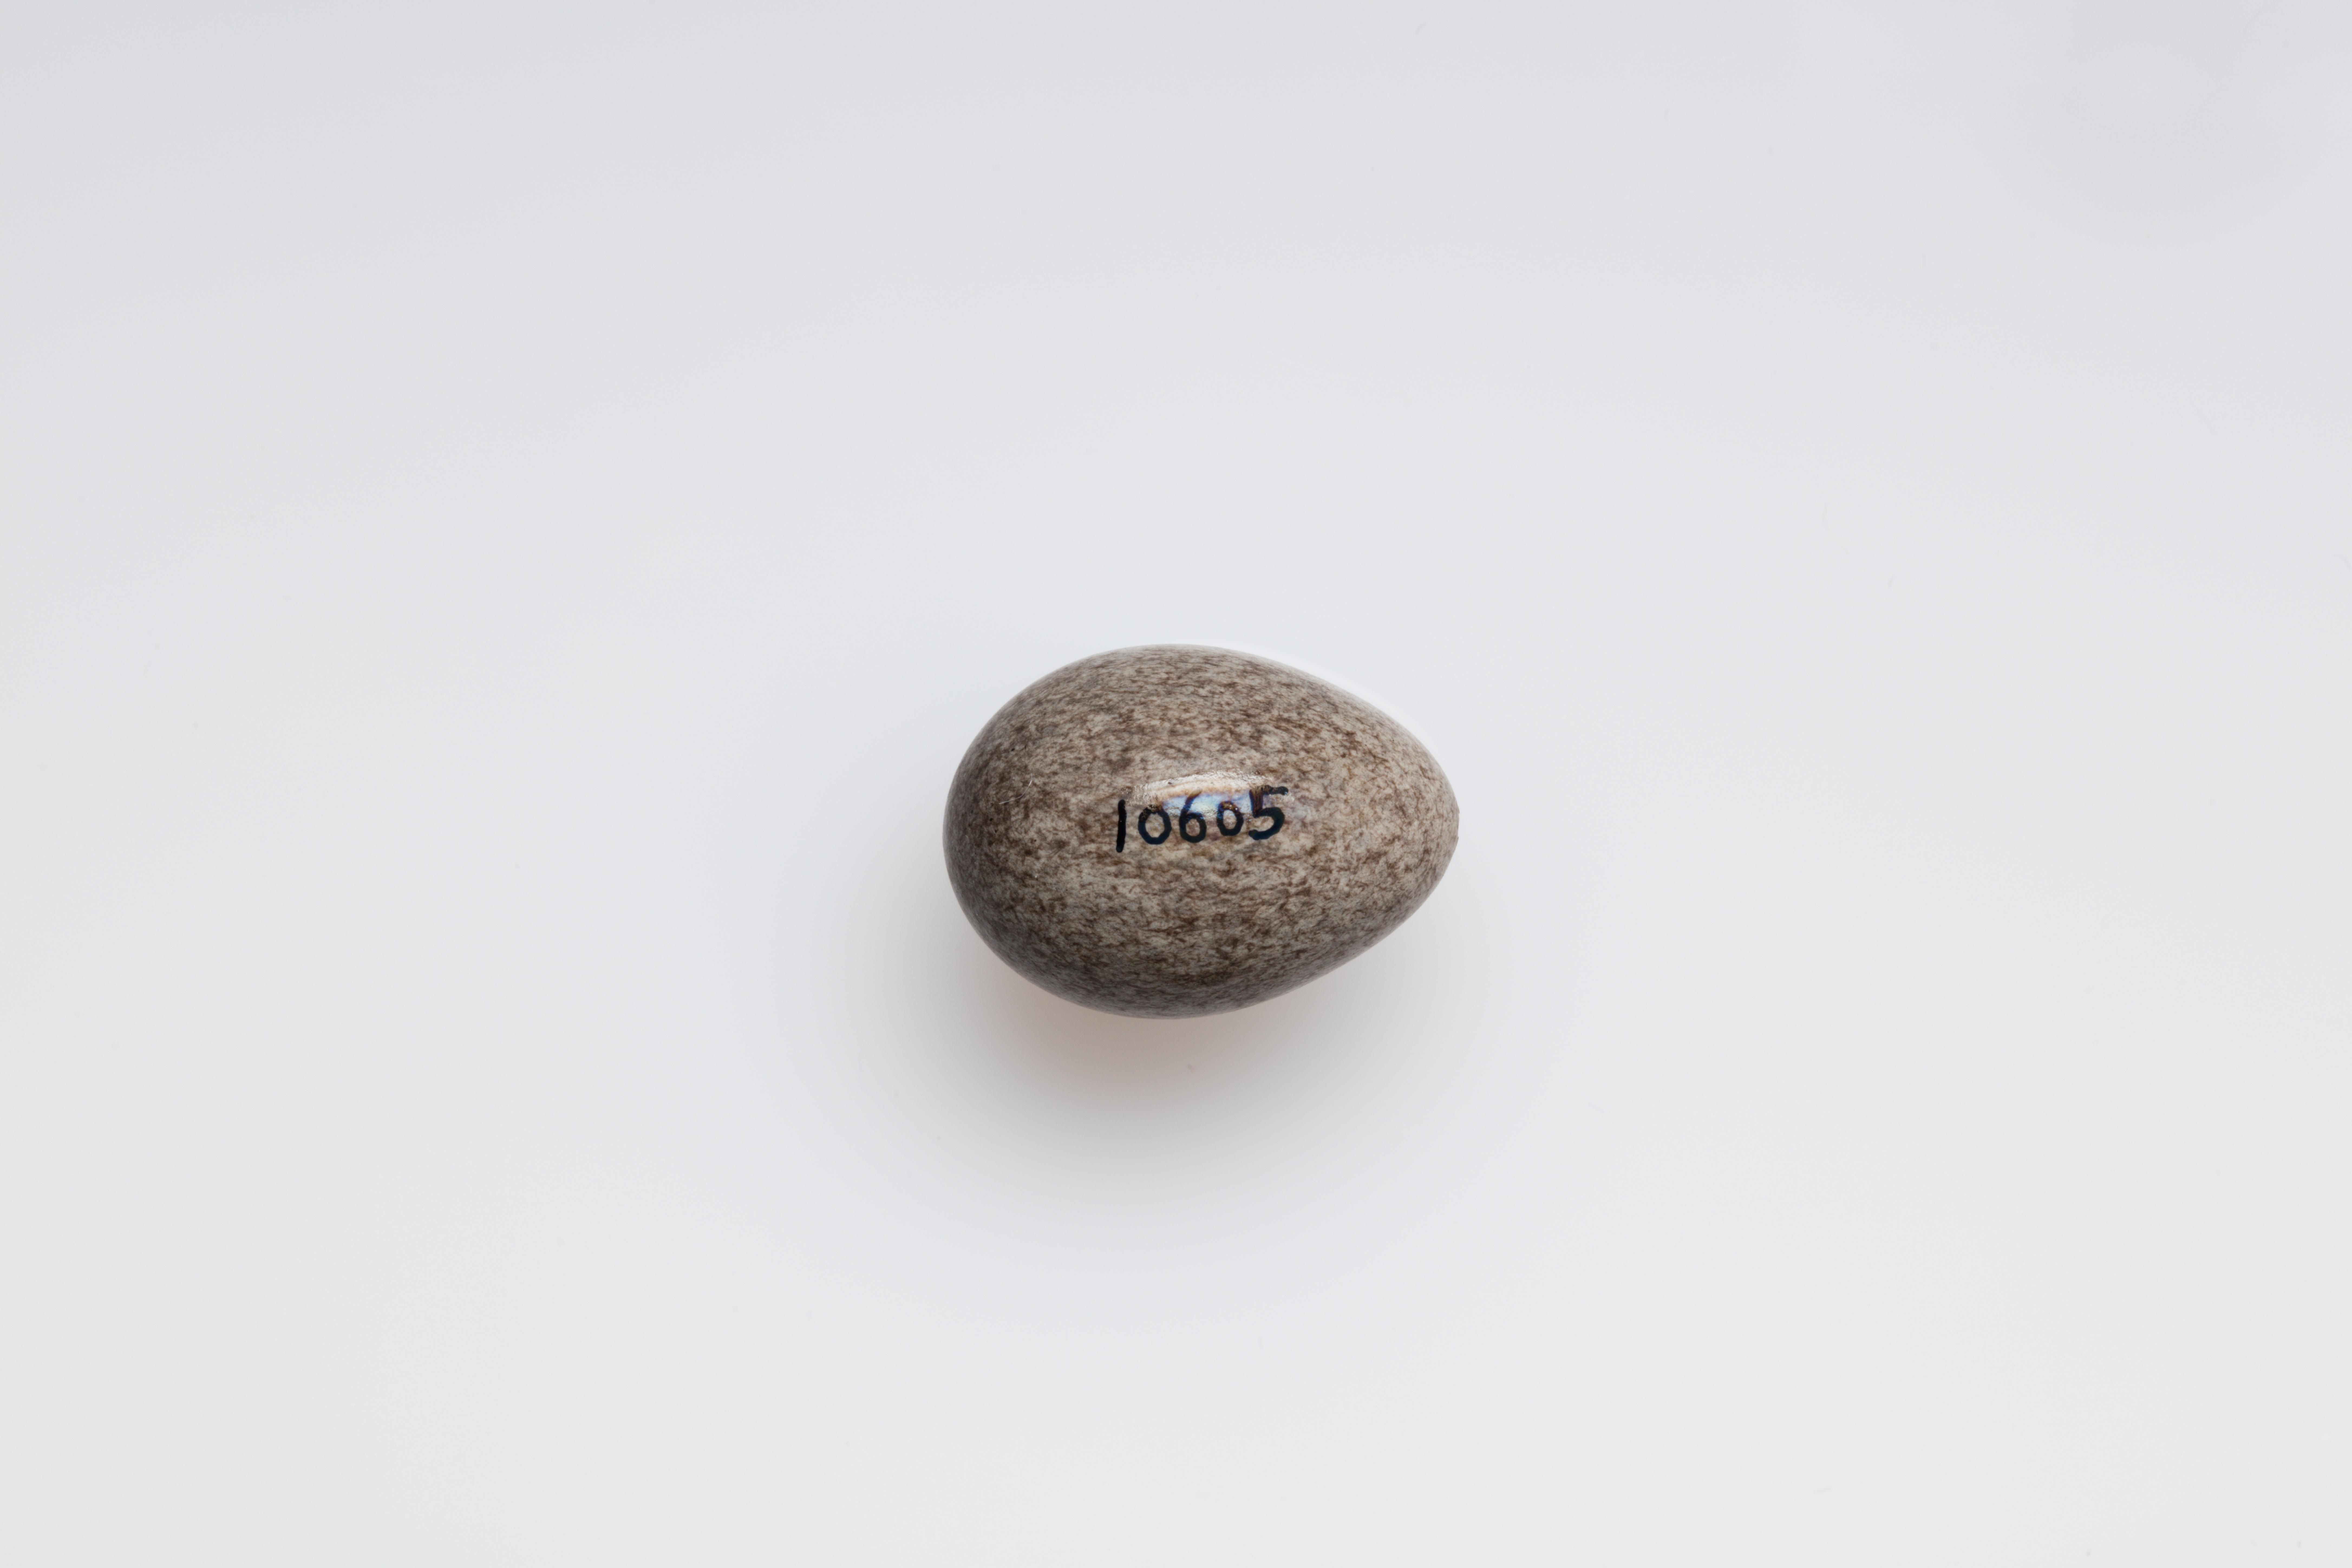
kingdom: Animalia
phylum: Chordata
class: Aves
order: Passeriformes
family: Motacillidae
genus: Anthus
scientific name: Anthus spinoletta
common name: Water pipit
